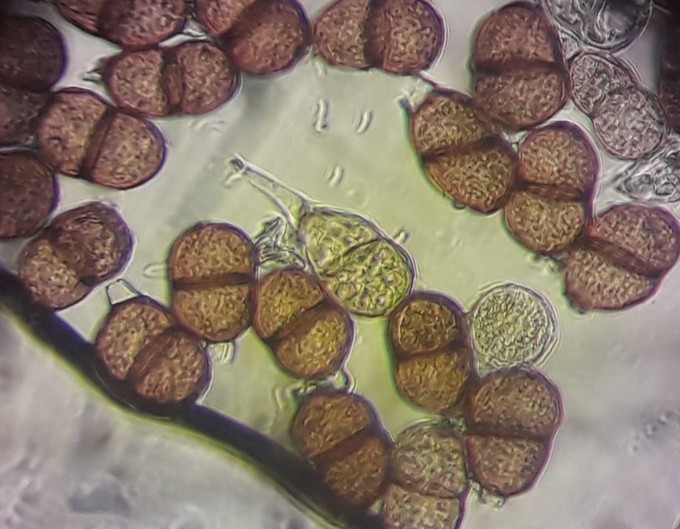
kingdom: Fungi
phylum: Basidiomycota
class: Pucciniomycetes
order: Pucciniales
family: Pucciniaceae
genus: Puccinia
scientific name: Puccinia retifera
